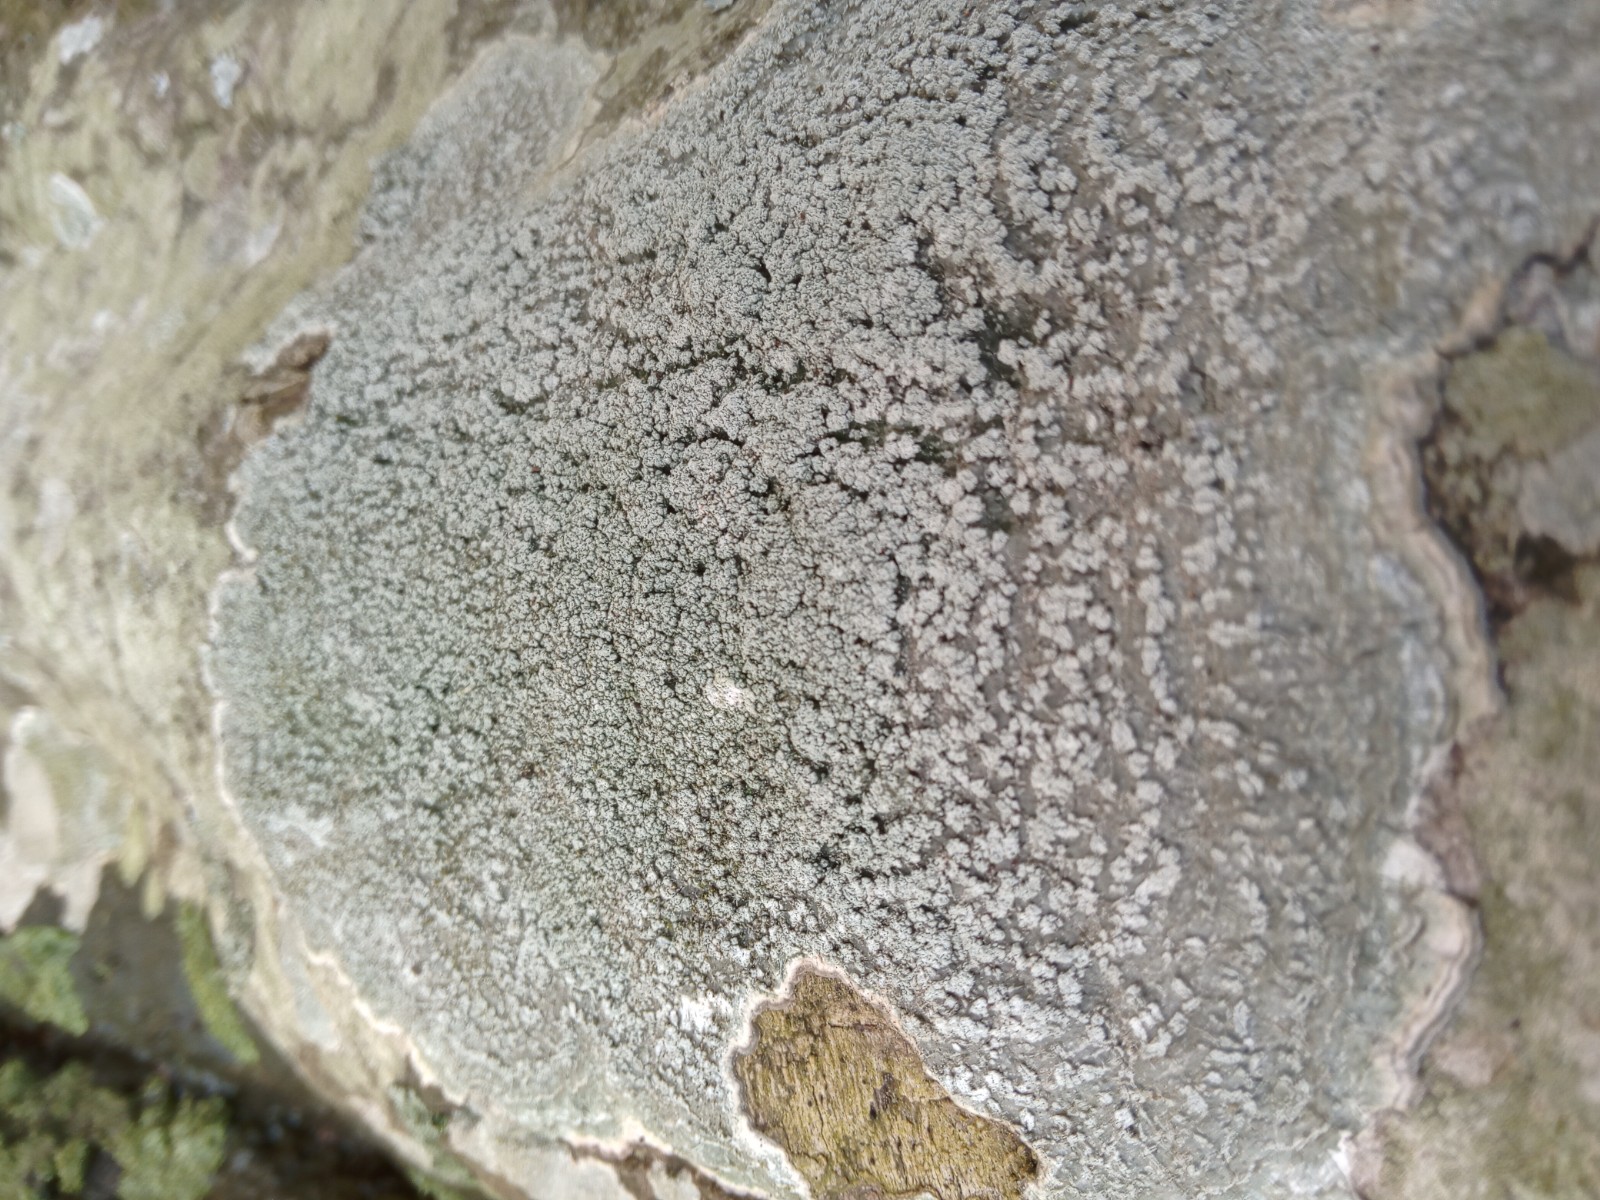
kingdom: Fungi
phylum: Ascomycota
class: Lecanoromycetes
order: Pertusariales
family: Pertusariaceae
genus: Lepra
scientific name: Lepra albescens
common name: hvidmelet prikvortelav
